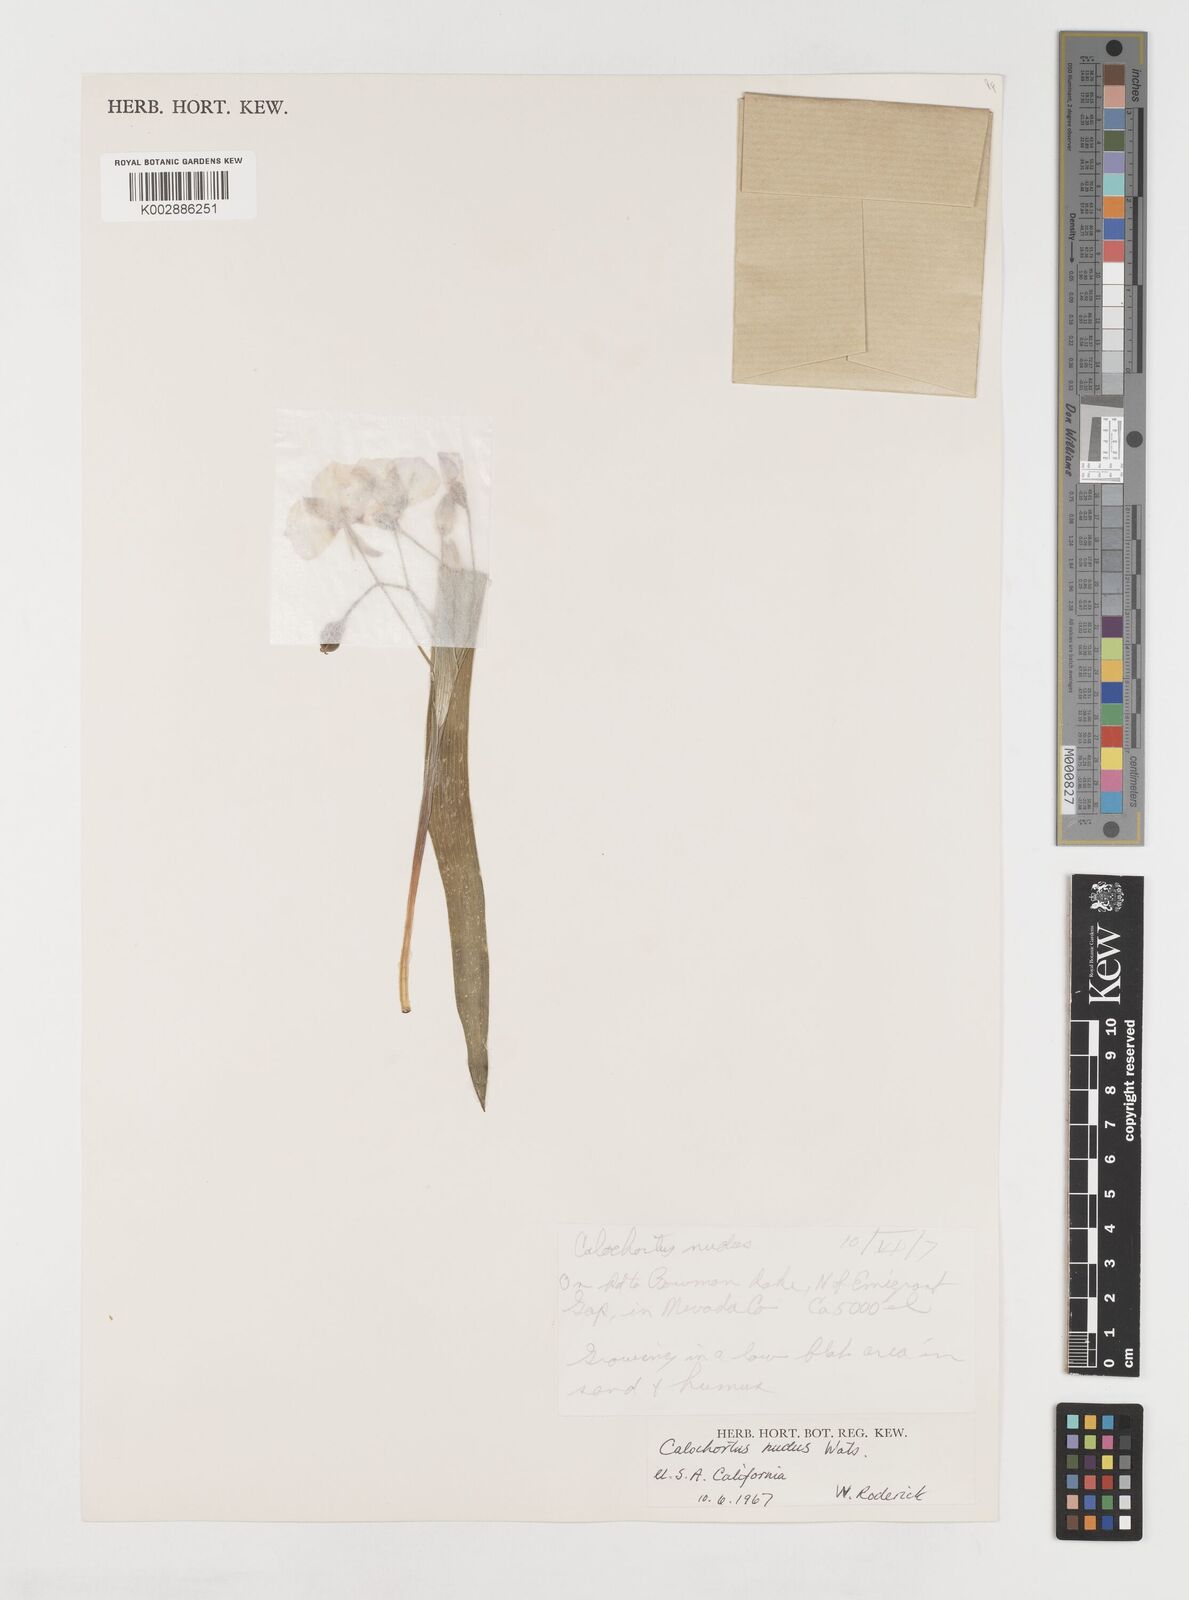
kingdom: Plantae
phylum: Tracheophyta
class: Liliopsida
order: Liliales
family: Liliaceae
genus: Calochortus
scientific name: Calochortus nudus
